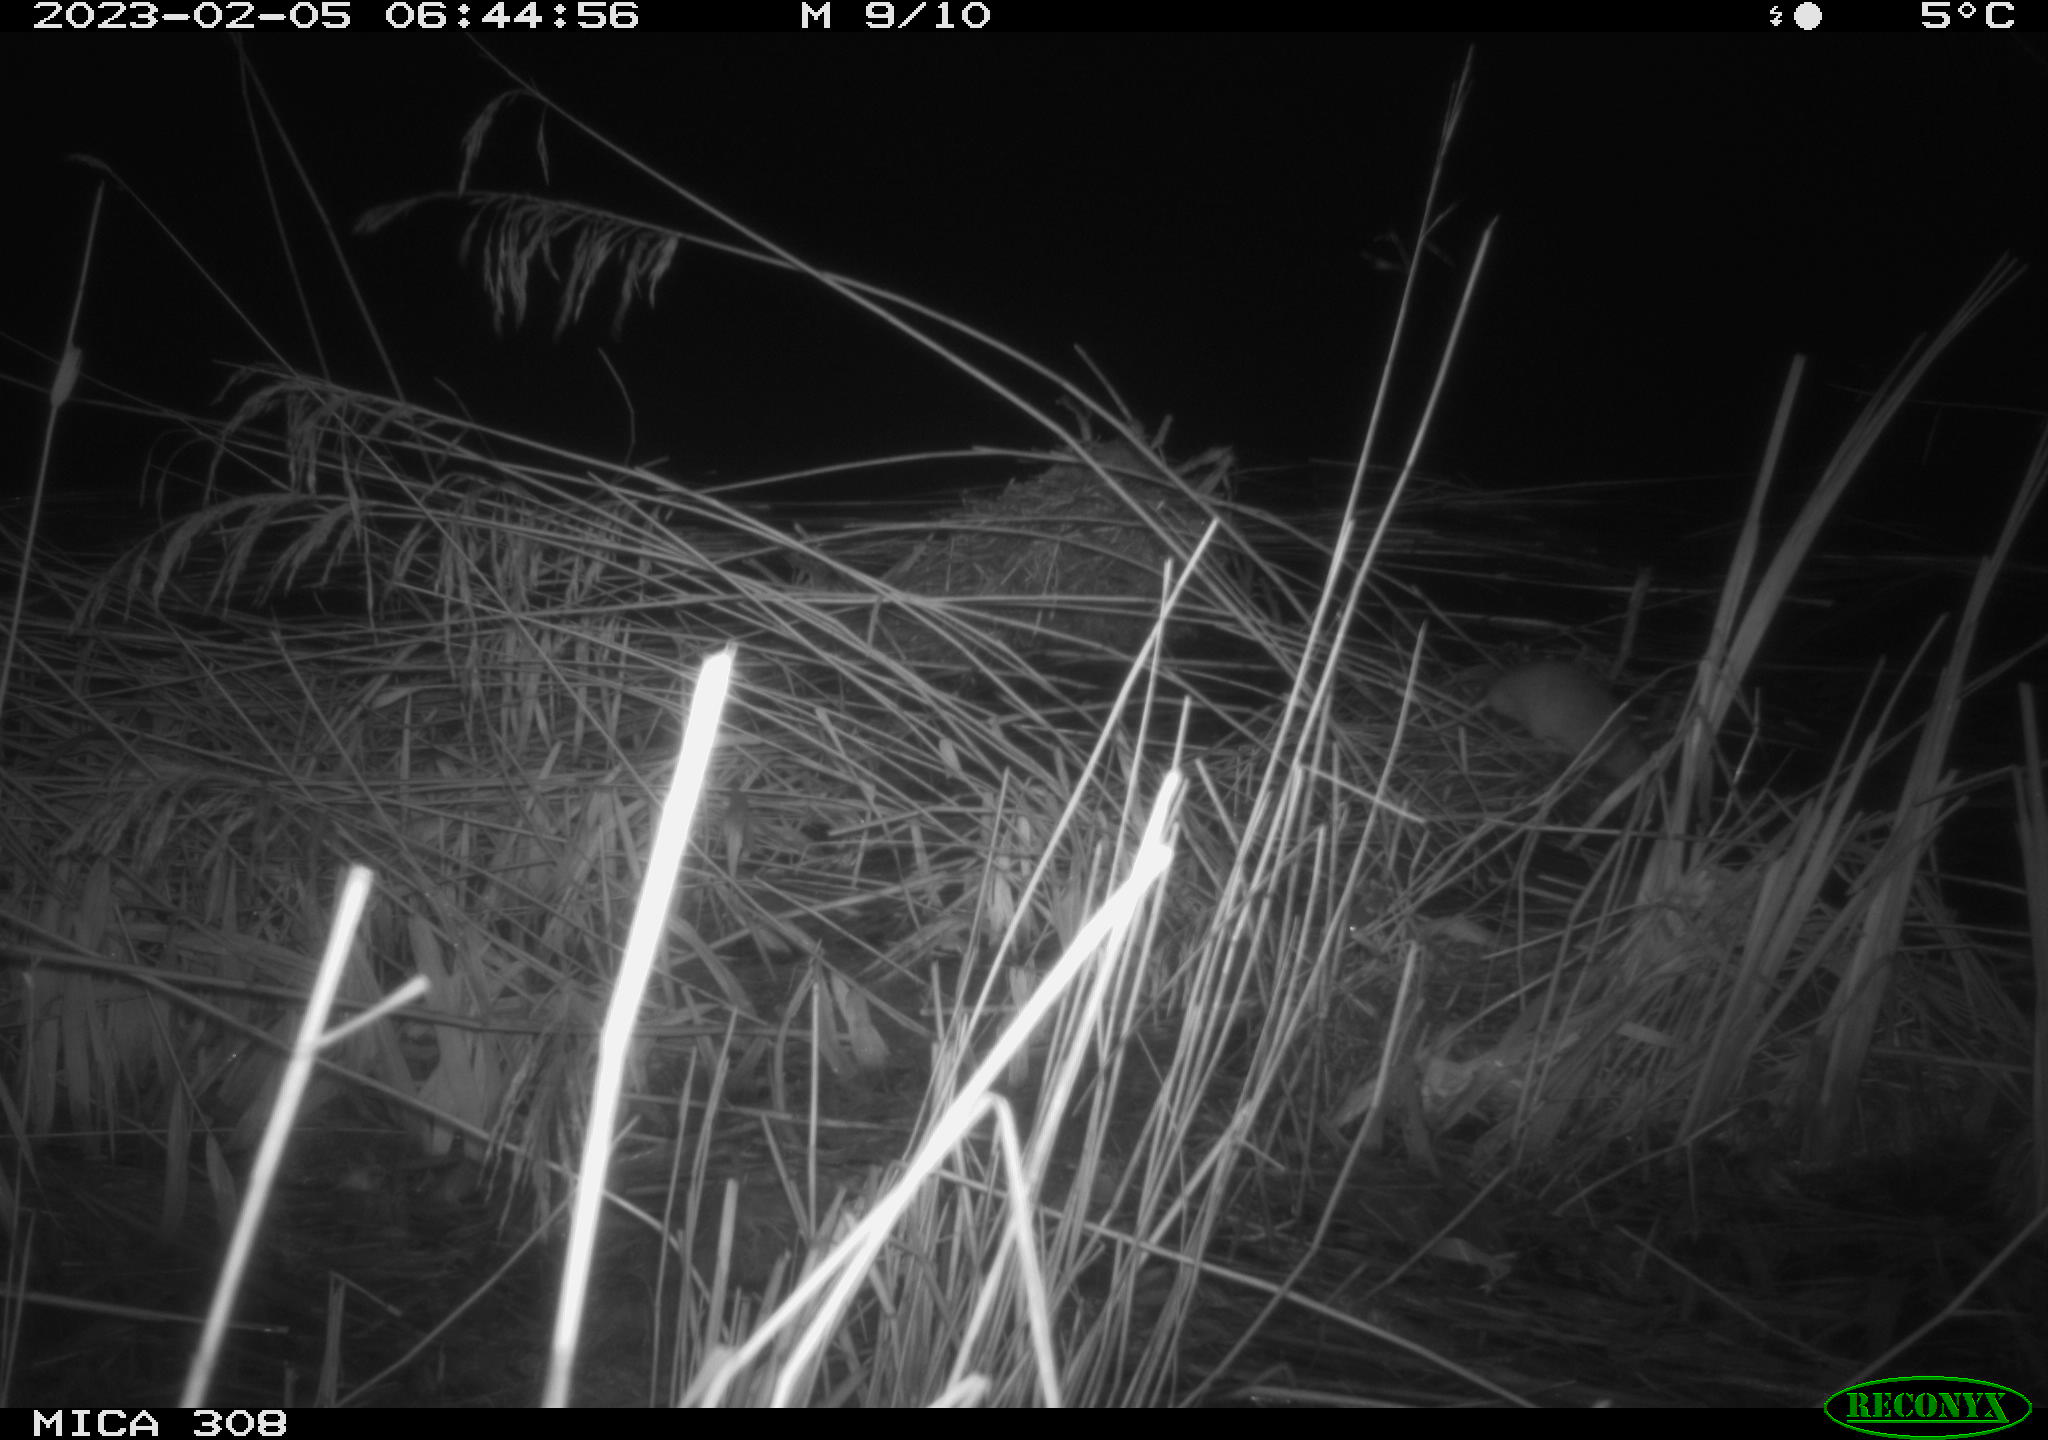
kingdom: Animalia
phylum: Chordata
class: Mammalia
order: Rodentia
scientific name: Rodentia
